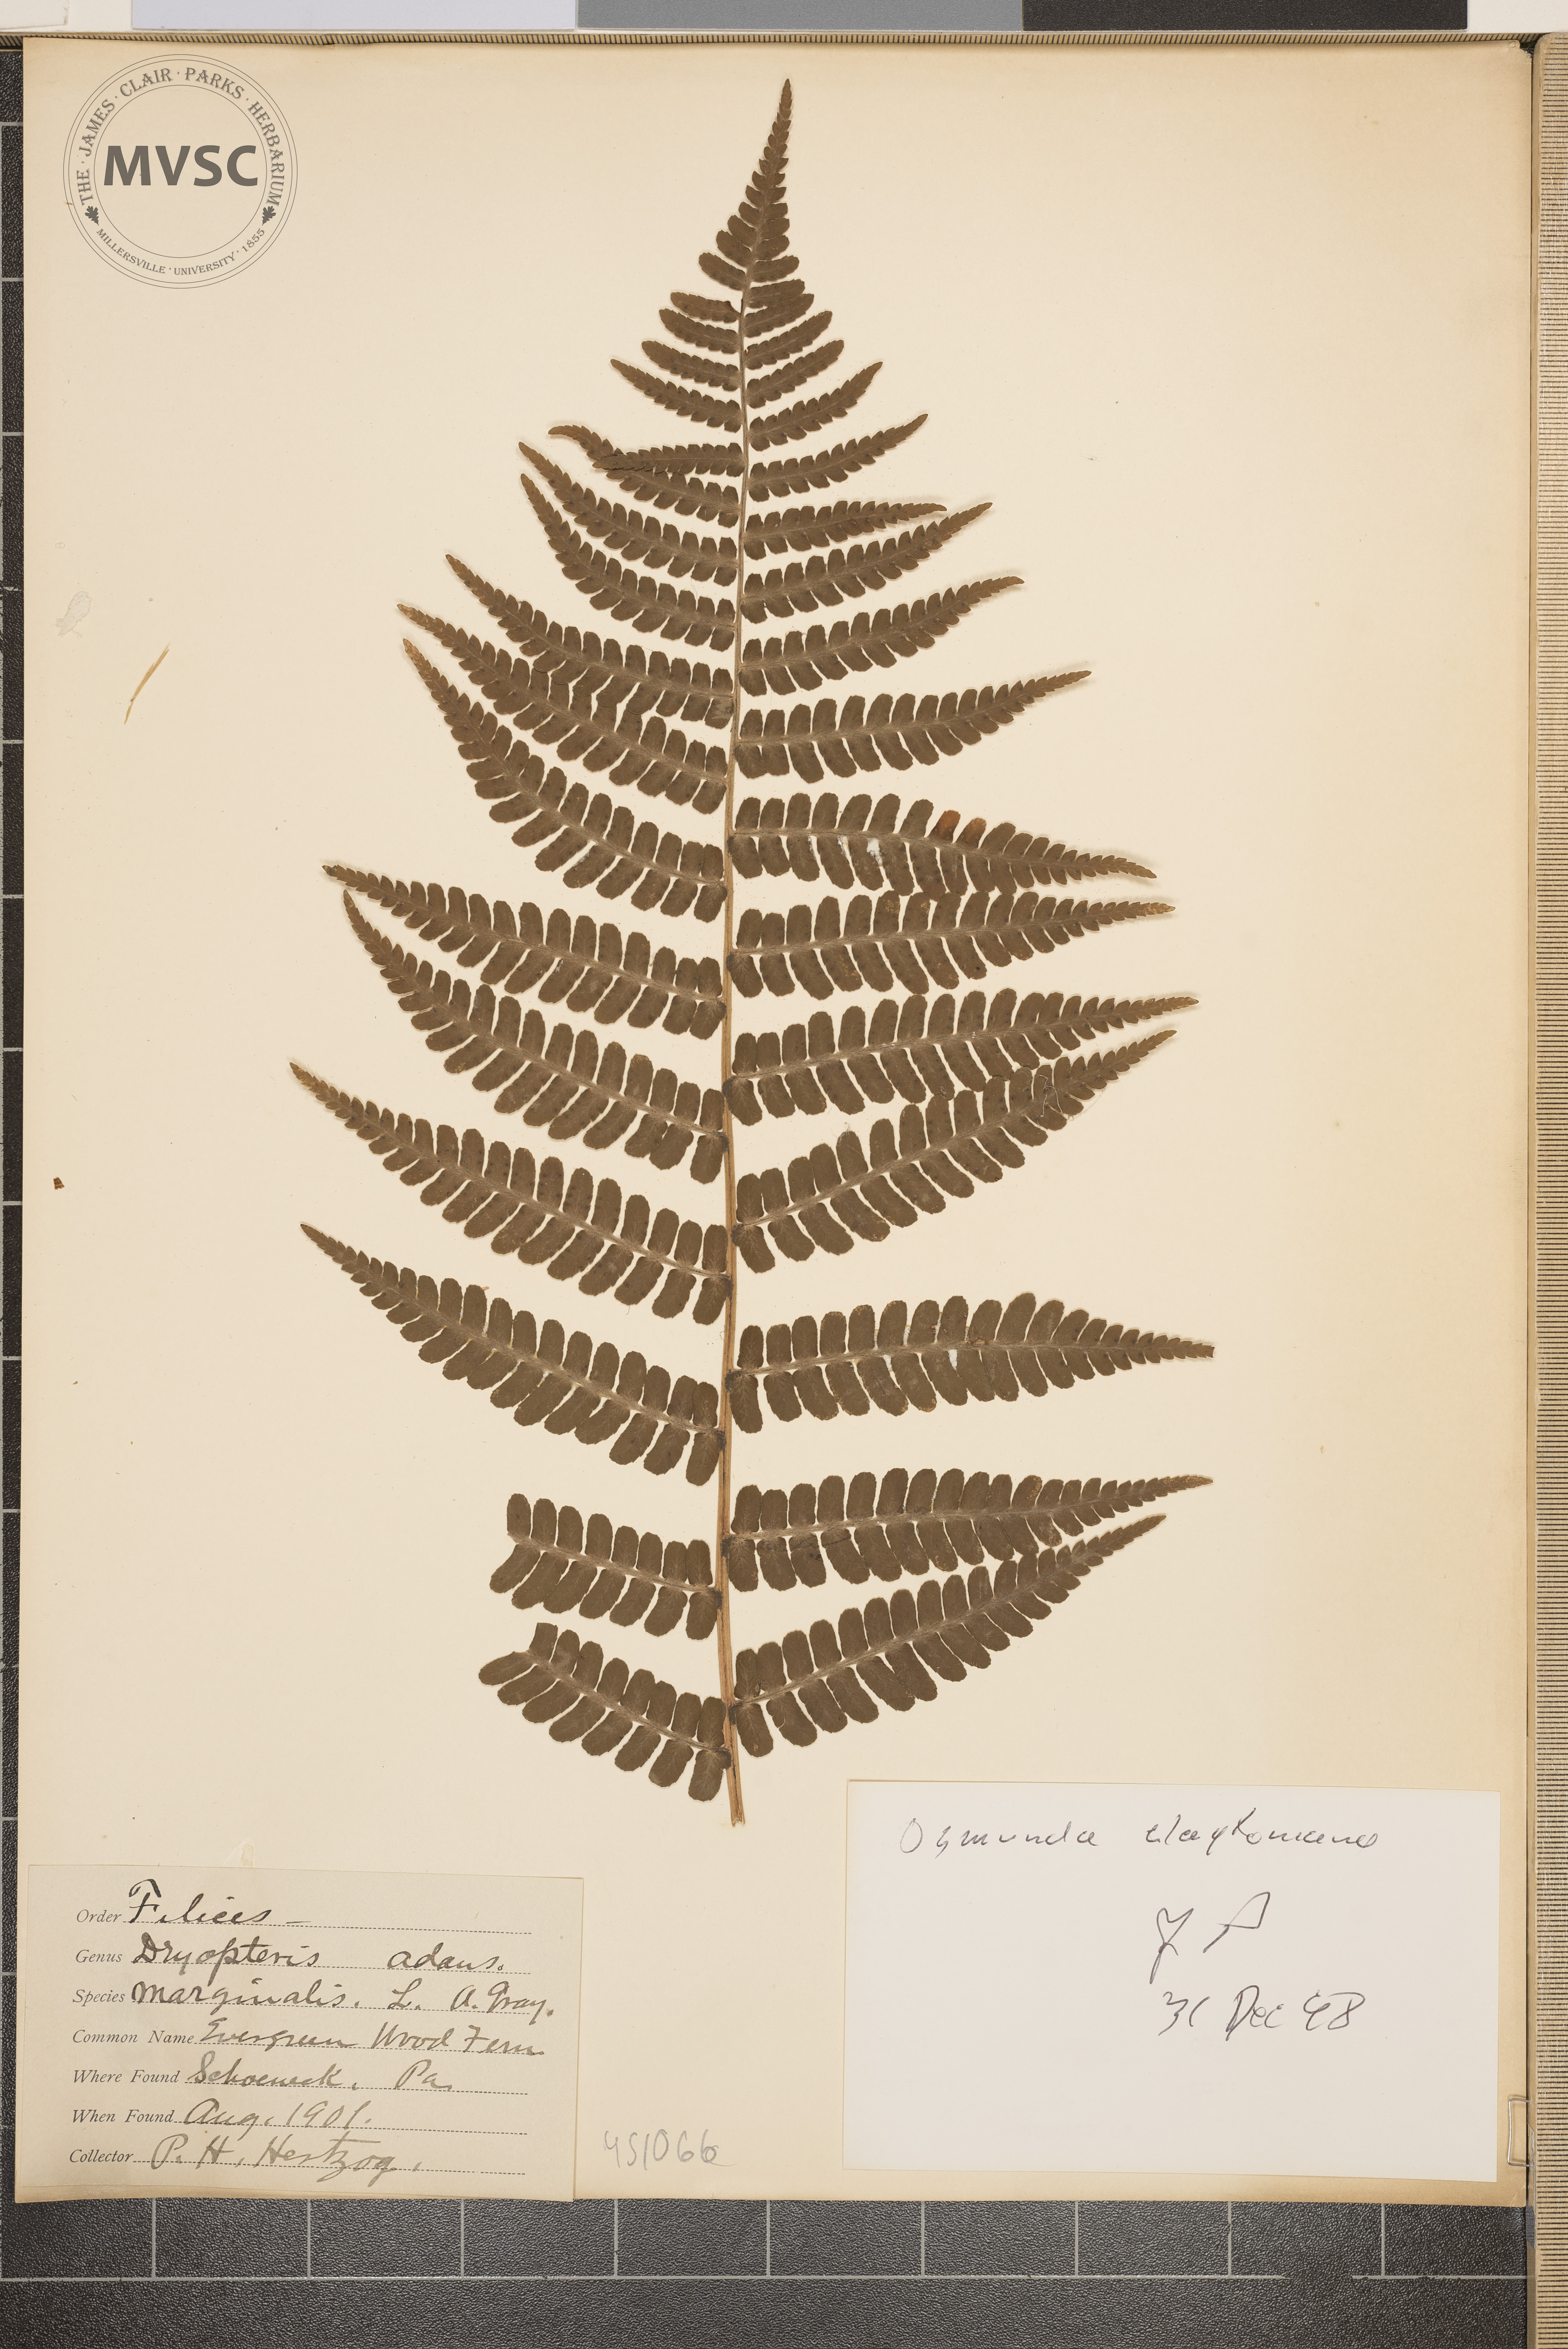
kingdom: Plantae
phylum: Tracheophyta
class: Polypodiopsida
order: Osmundales
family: Osmundaceae
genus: Claytosmunda
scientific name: Claytosmunda claytoniana
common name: Clayton's fern
